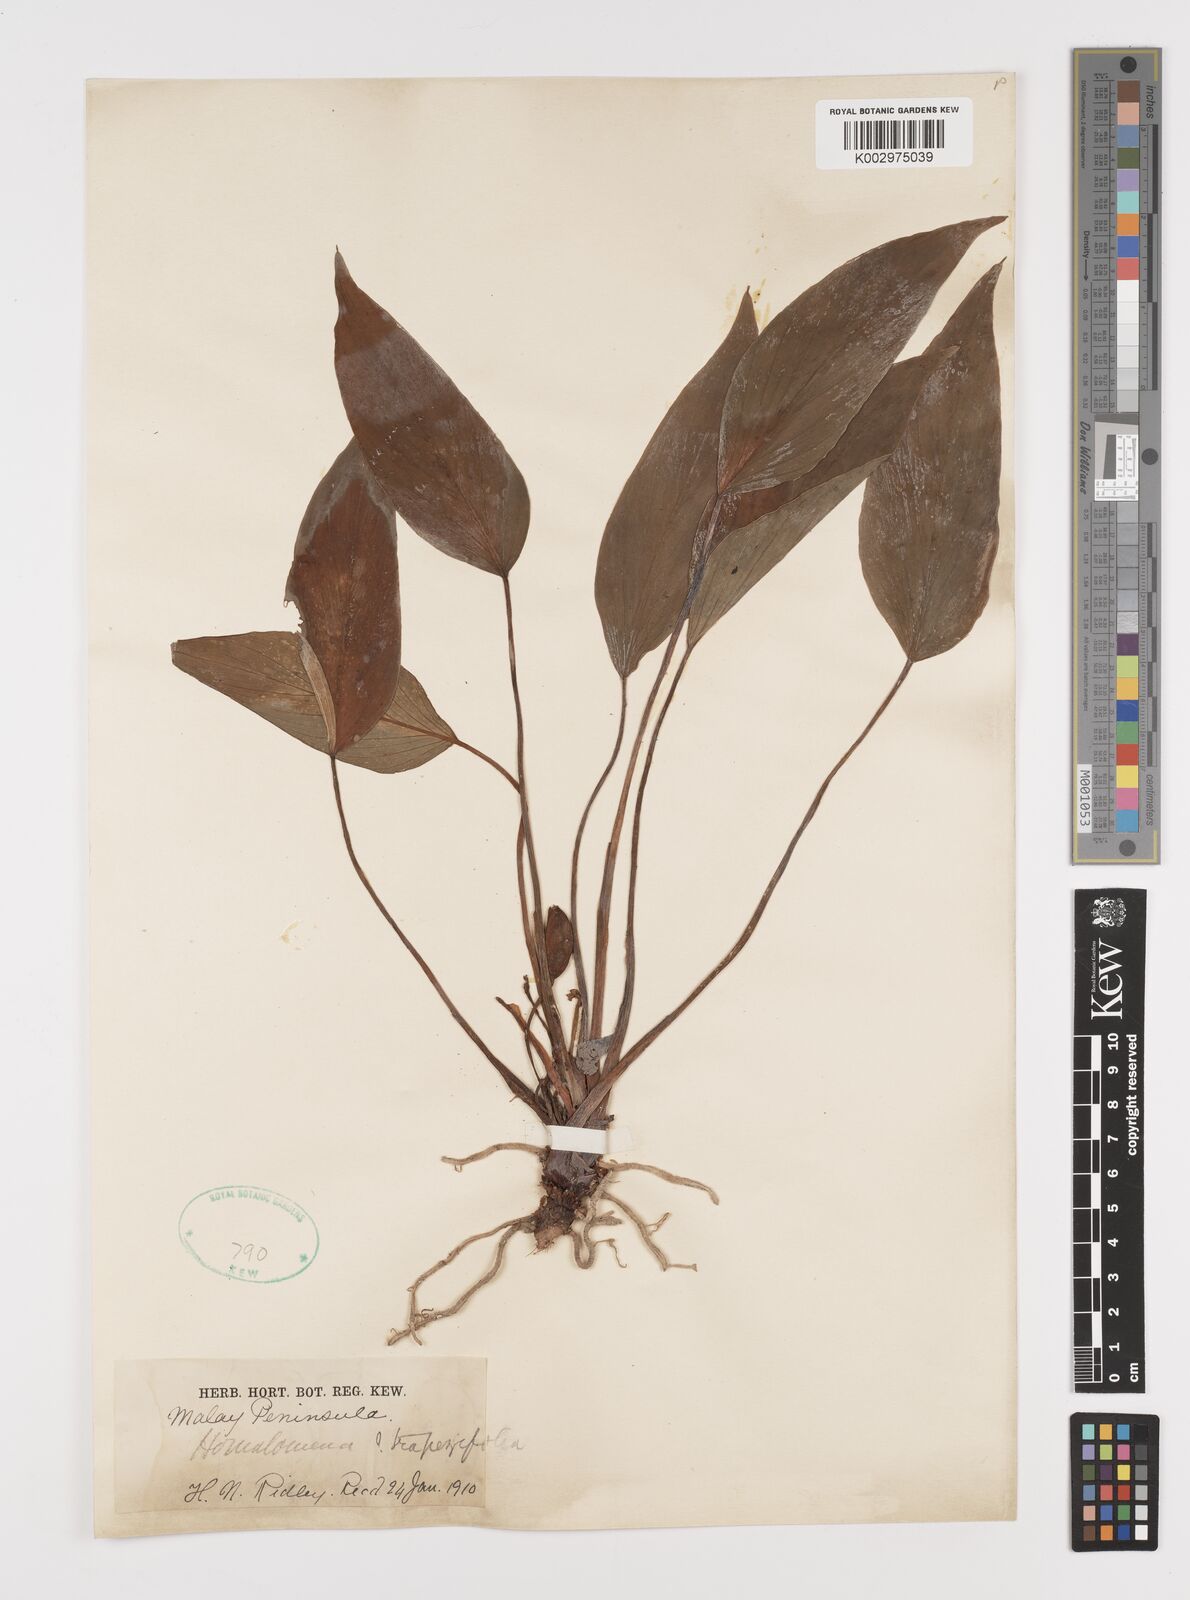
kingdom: Plantae
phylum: Tracheophyta
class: Liliopsida
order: Alismatales
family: Araceae
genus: Homalomena
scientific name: Homalomena griffithii
